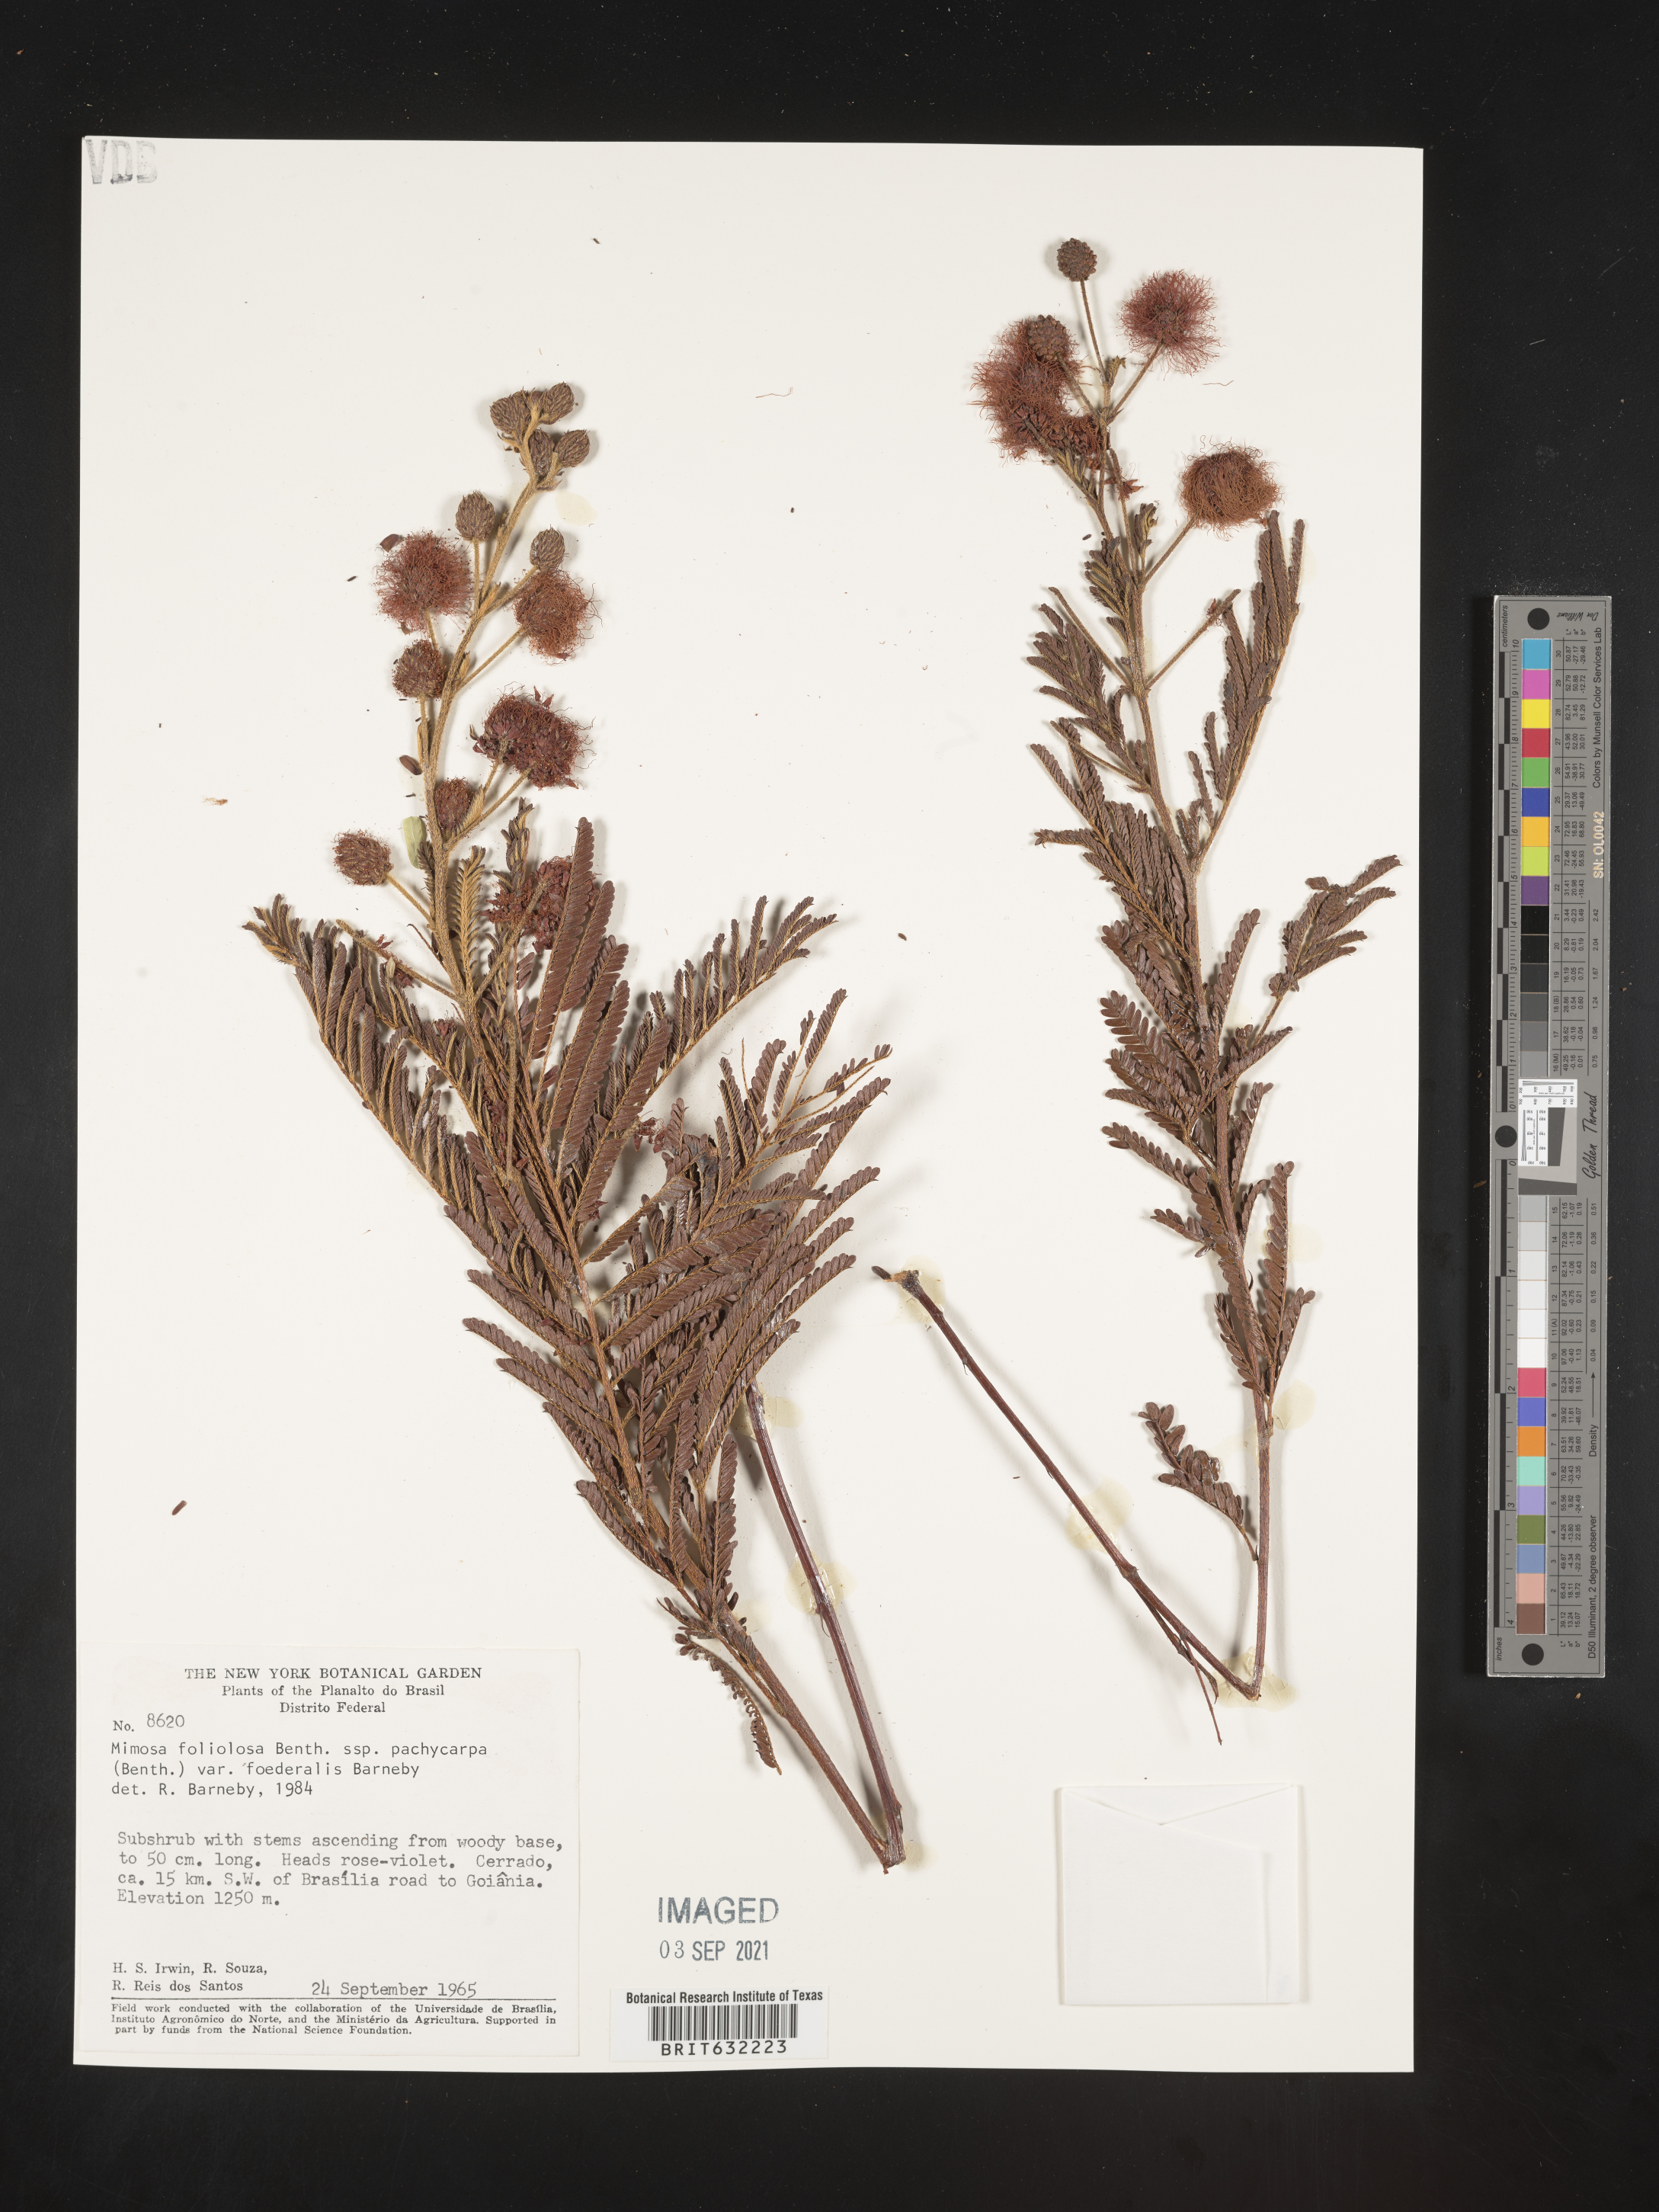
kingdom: Plantae
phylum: Tracheophyta
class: Magnoliopsida
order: Fabales
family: Fabaceae
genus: Mimosa
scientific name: Mimosa
